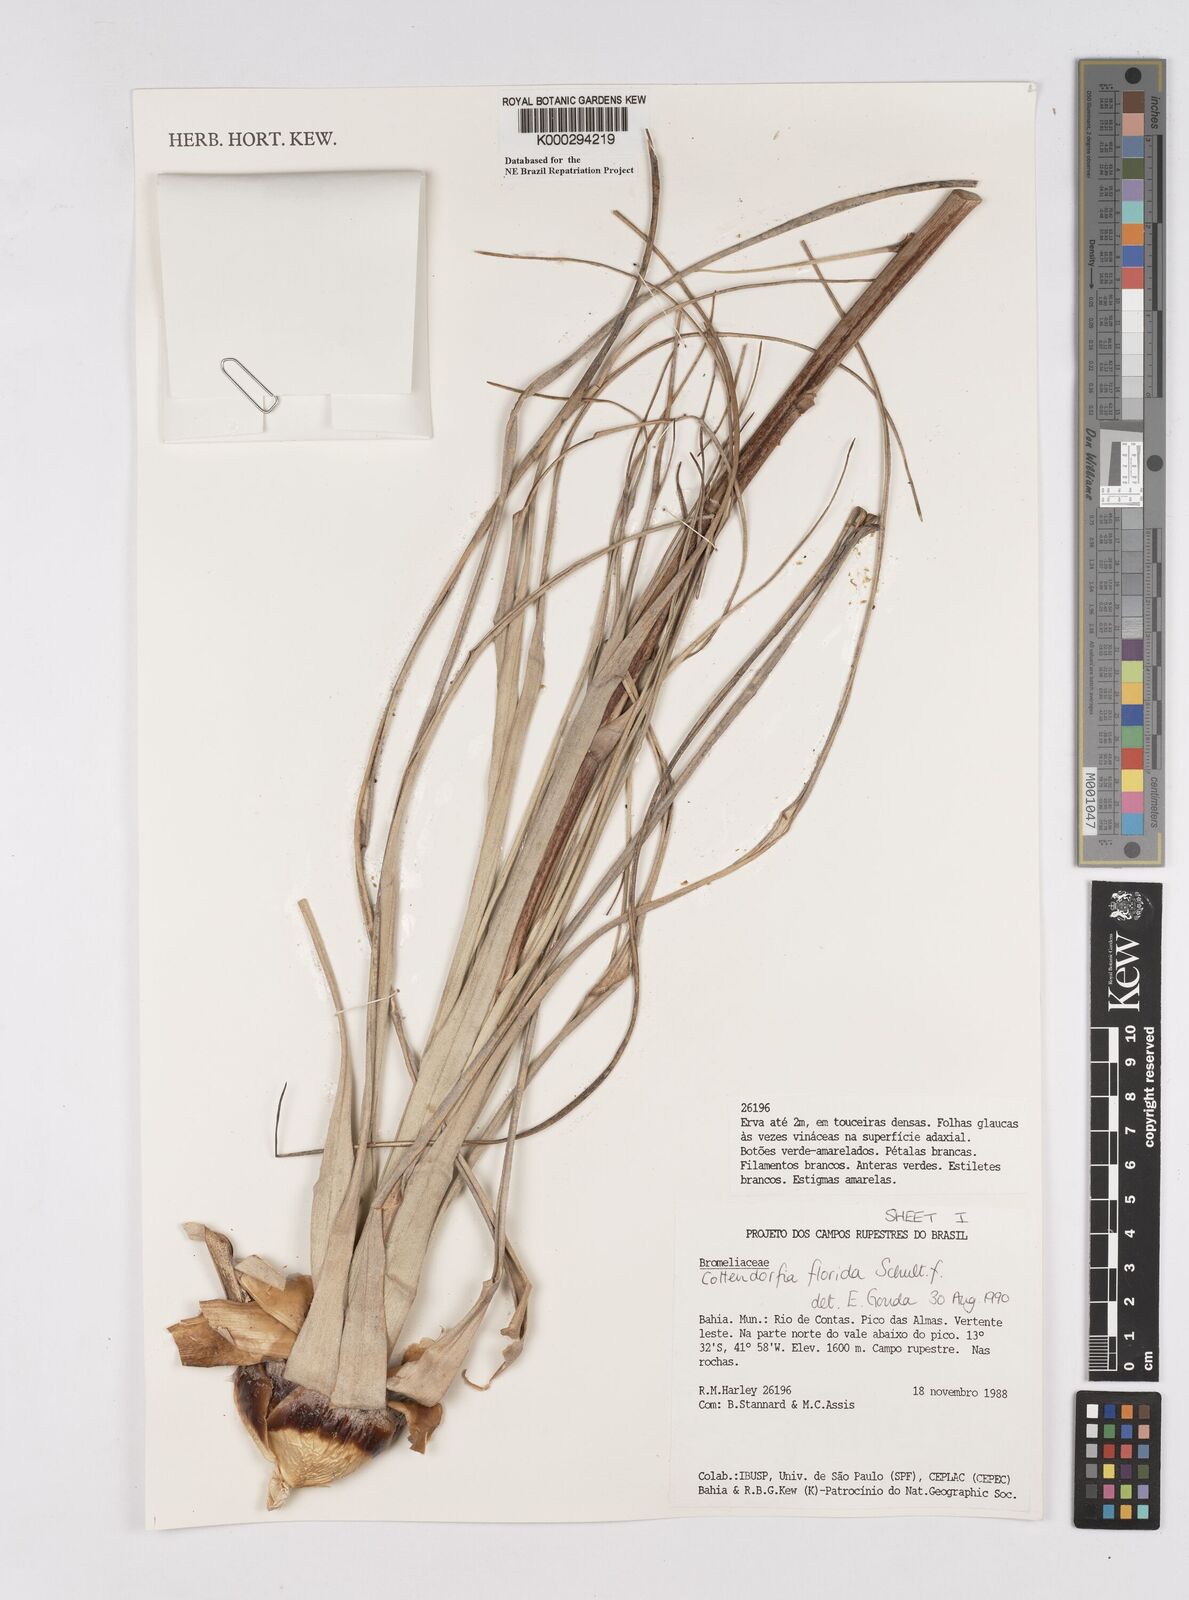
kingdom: Plantae
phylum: Tracheophyta
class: Liliopsida
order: Poales
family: Bromeliaceae
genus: Cottendorfia
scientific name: Cottendorfia florida
